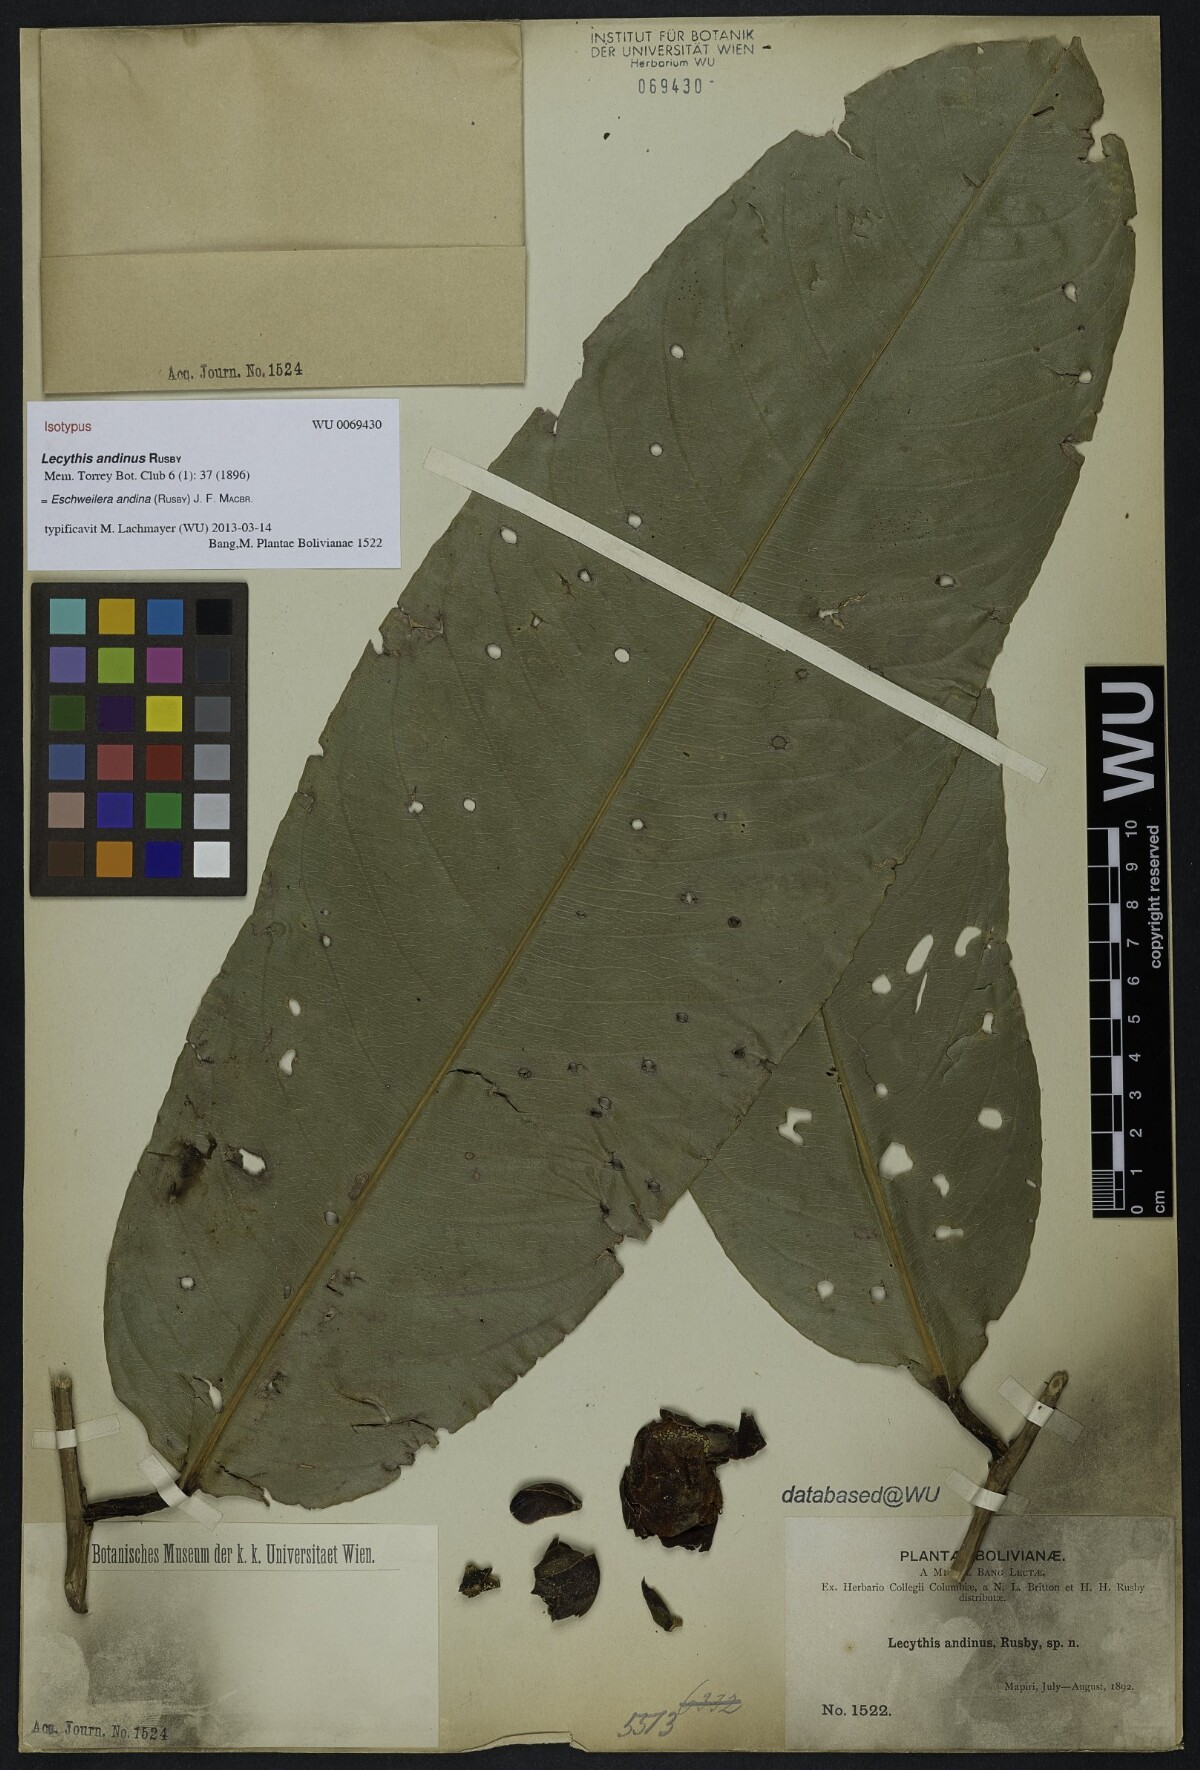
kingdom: Plantae
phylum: Tracheophyta
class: Magnoliopsida
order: Ericales
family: Lecythidaceae
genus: Eschweilera
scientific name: Eschweilera andina
